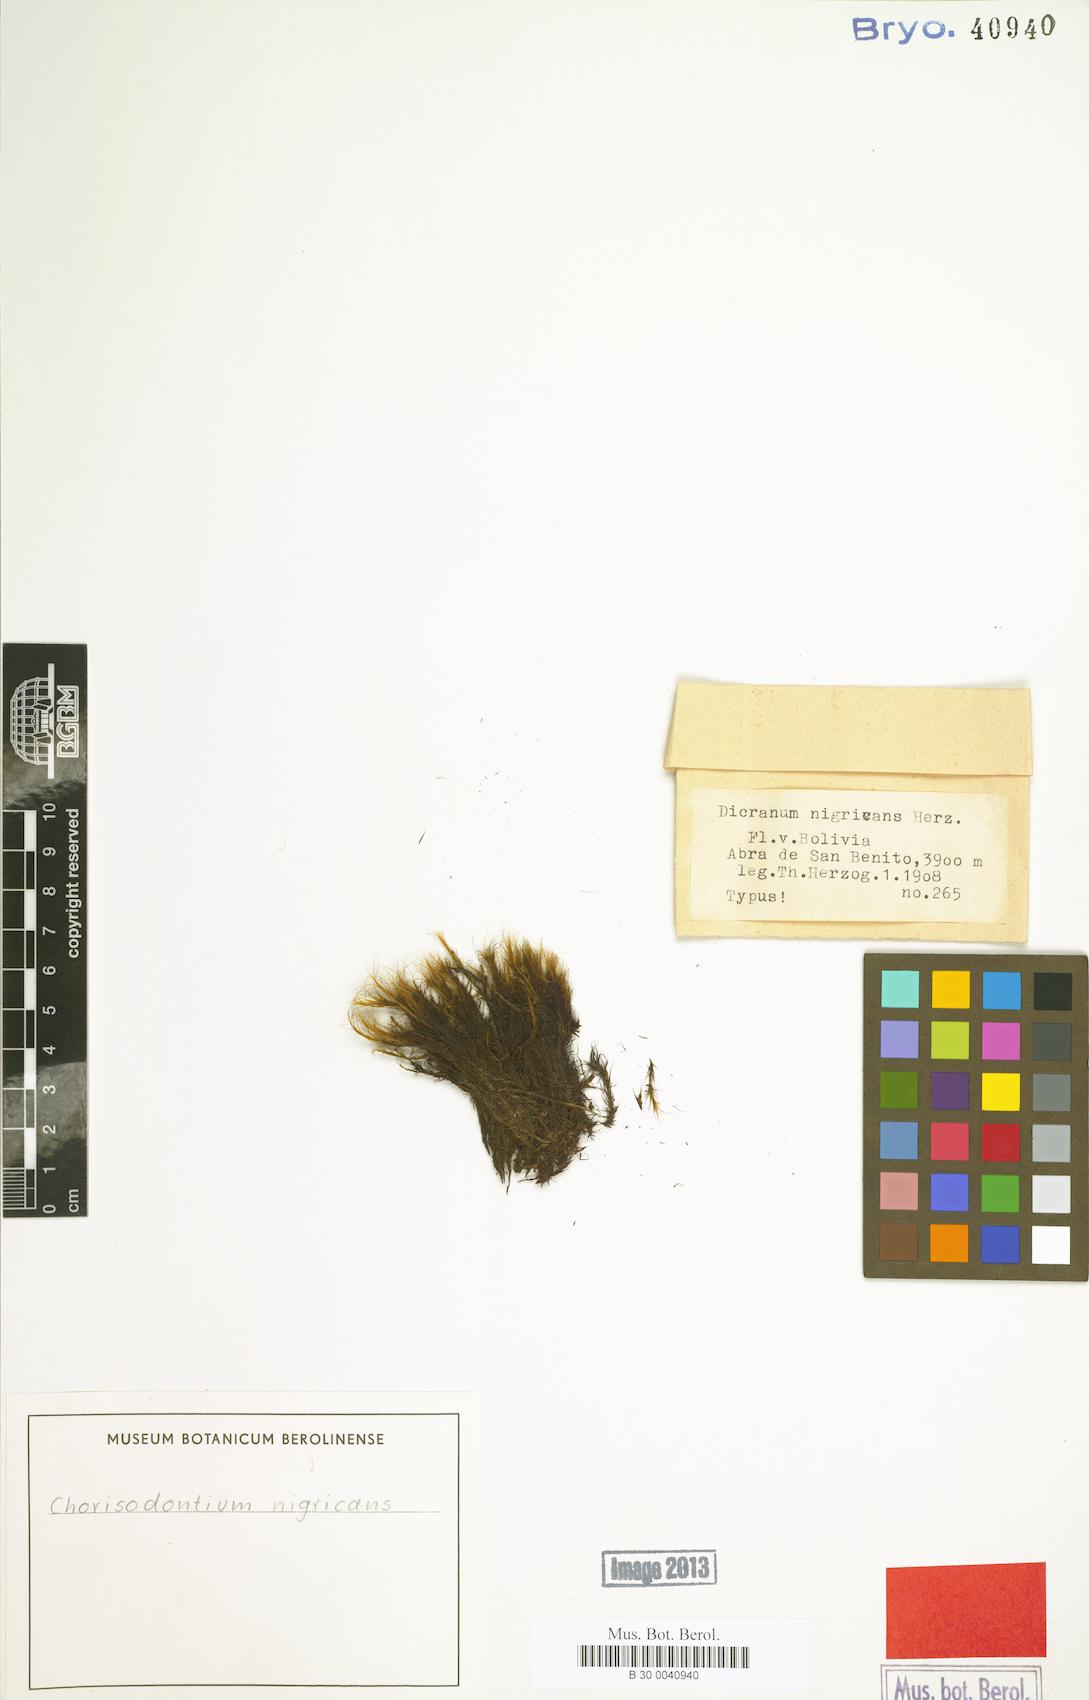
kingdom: Plantae
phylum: Bryophyta
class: Bryopsida
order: Dicranales
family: Dicranaceae
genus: Chorisodontium
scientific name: Chorisodontium nigricans
